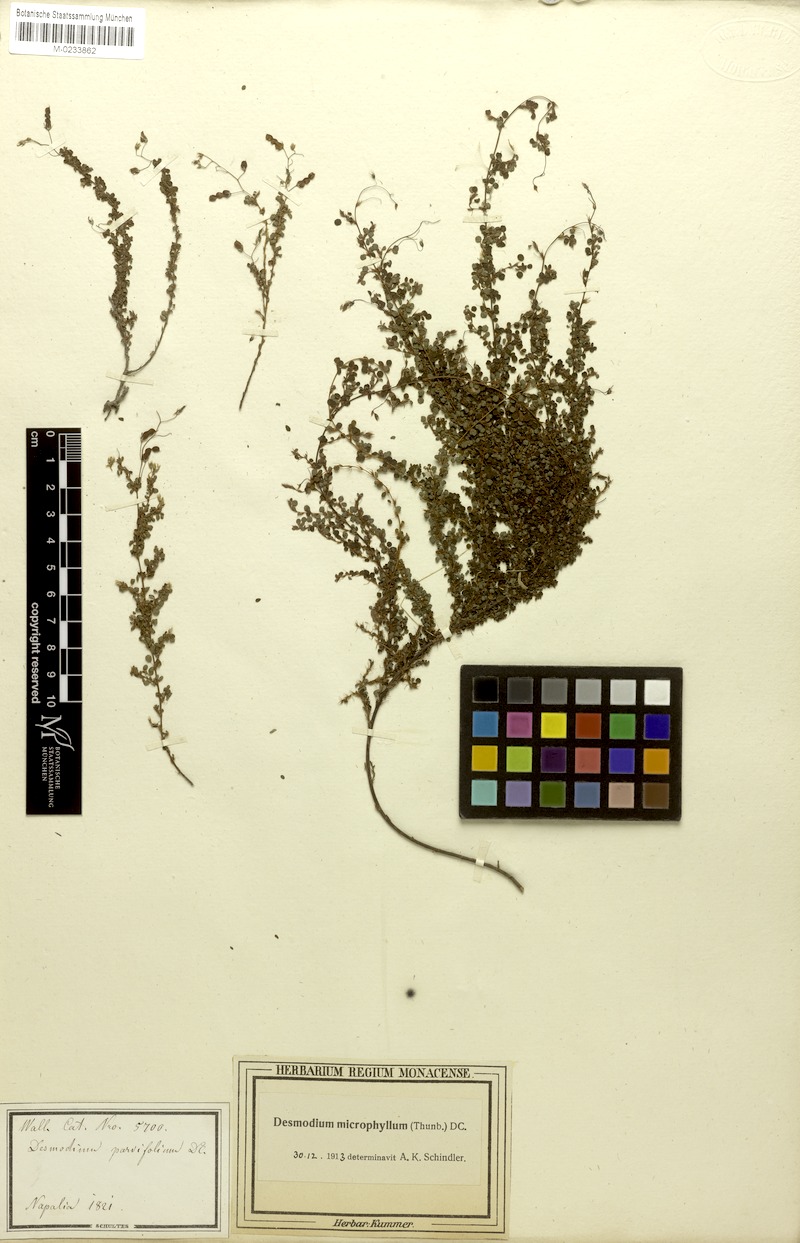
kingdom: Plantae
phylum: Tracheophyta
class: Magnoliopsida
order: Fabales
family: Fabaceae
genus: Leptodesmia
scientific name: Leptodesmia microphylla
